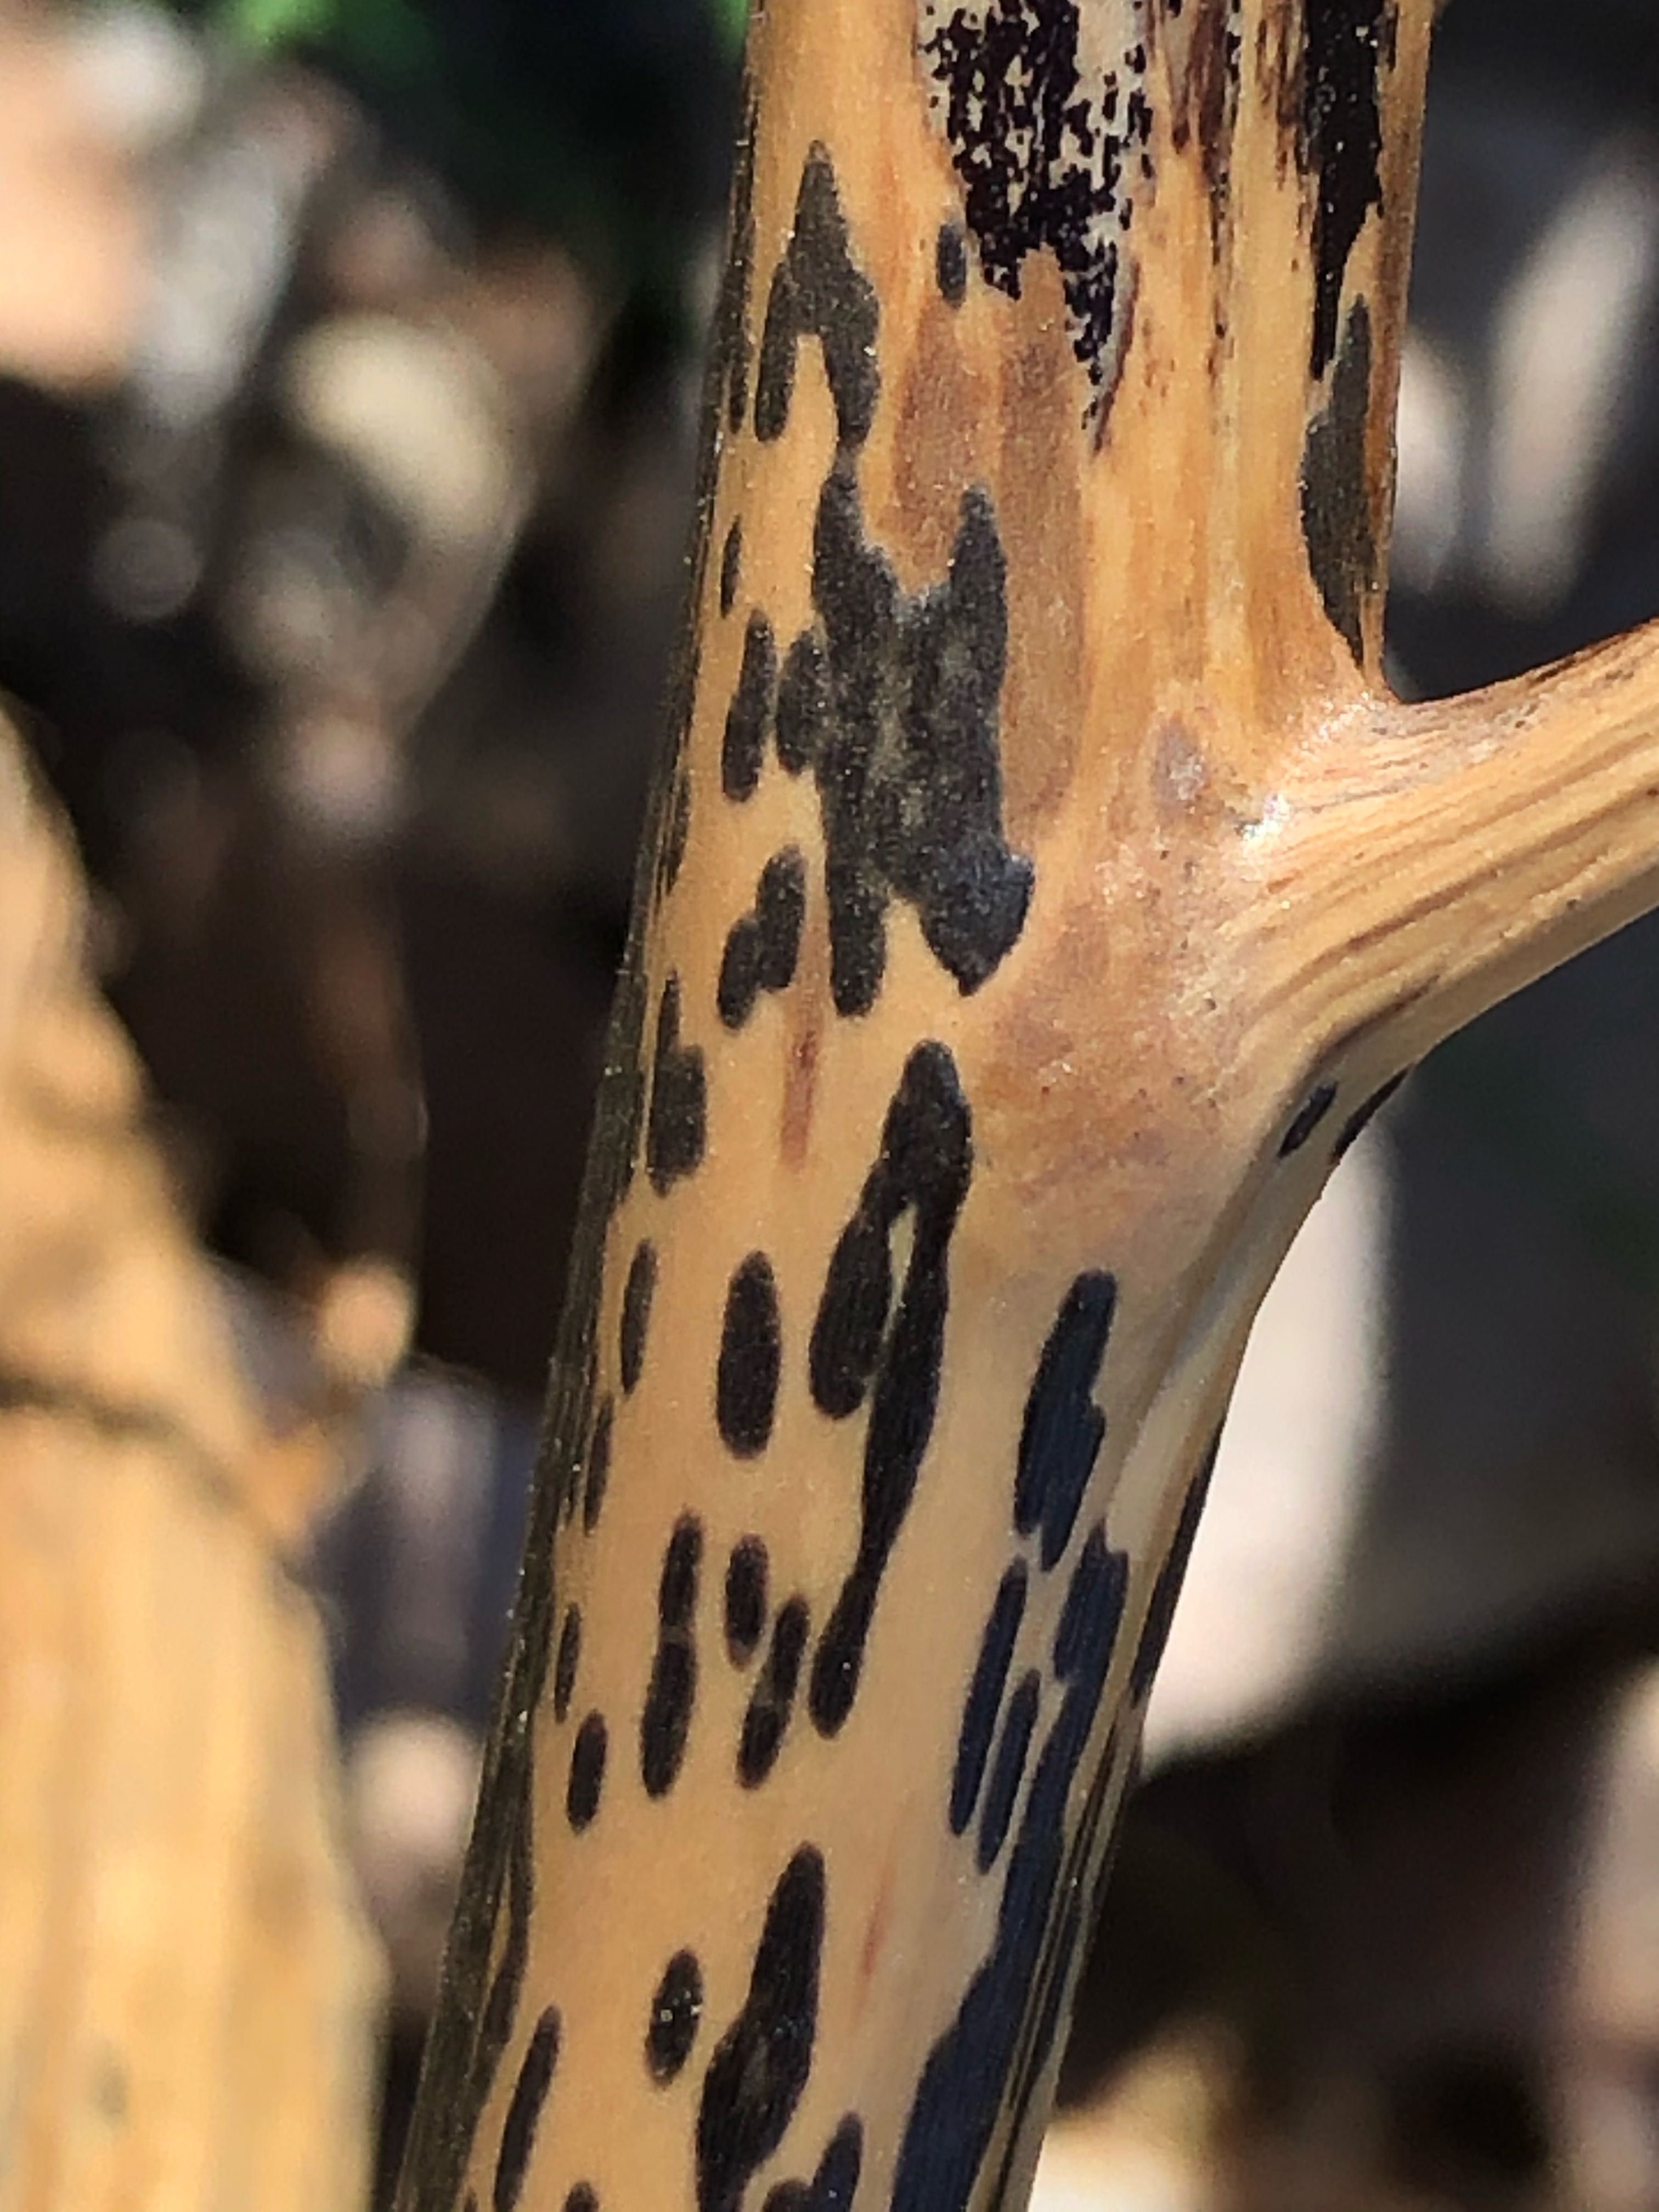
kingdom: Fungi
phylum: Ascomycota
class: Dothideomycetes
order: Pleosporales
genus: Rhopographus
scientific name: Rhopographus filicinus
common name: Bracken map
